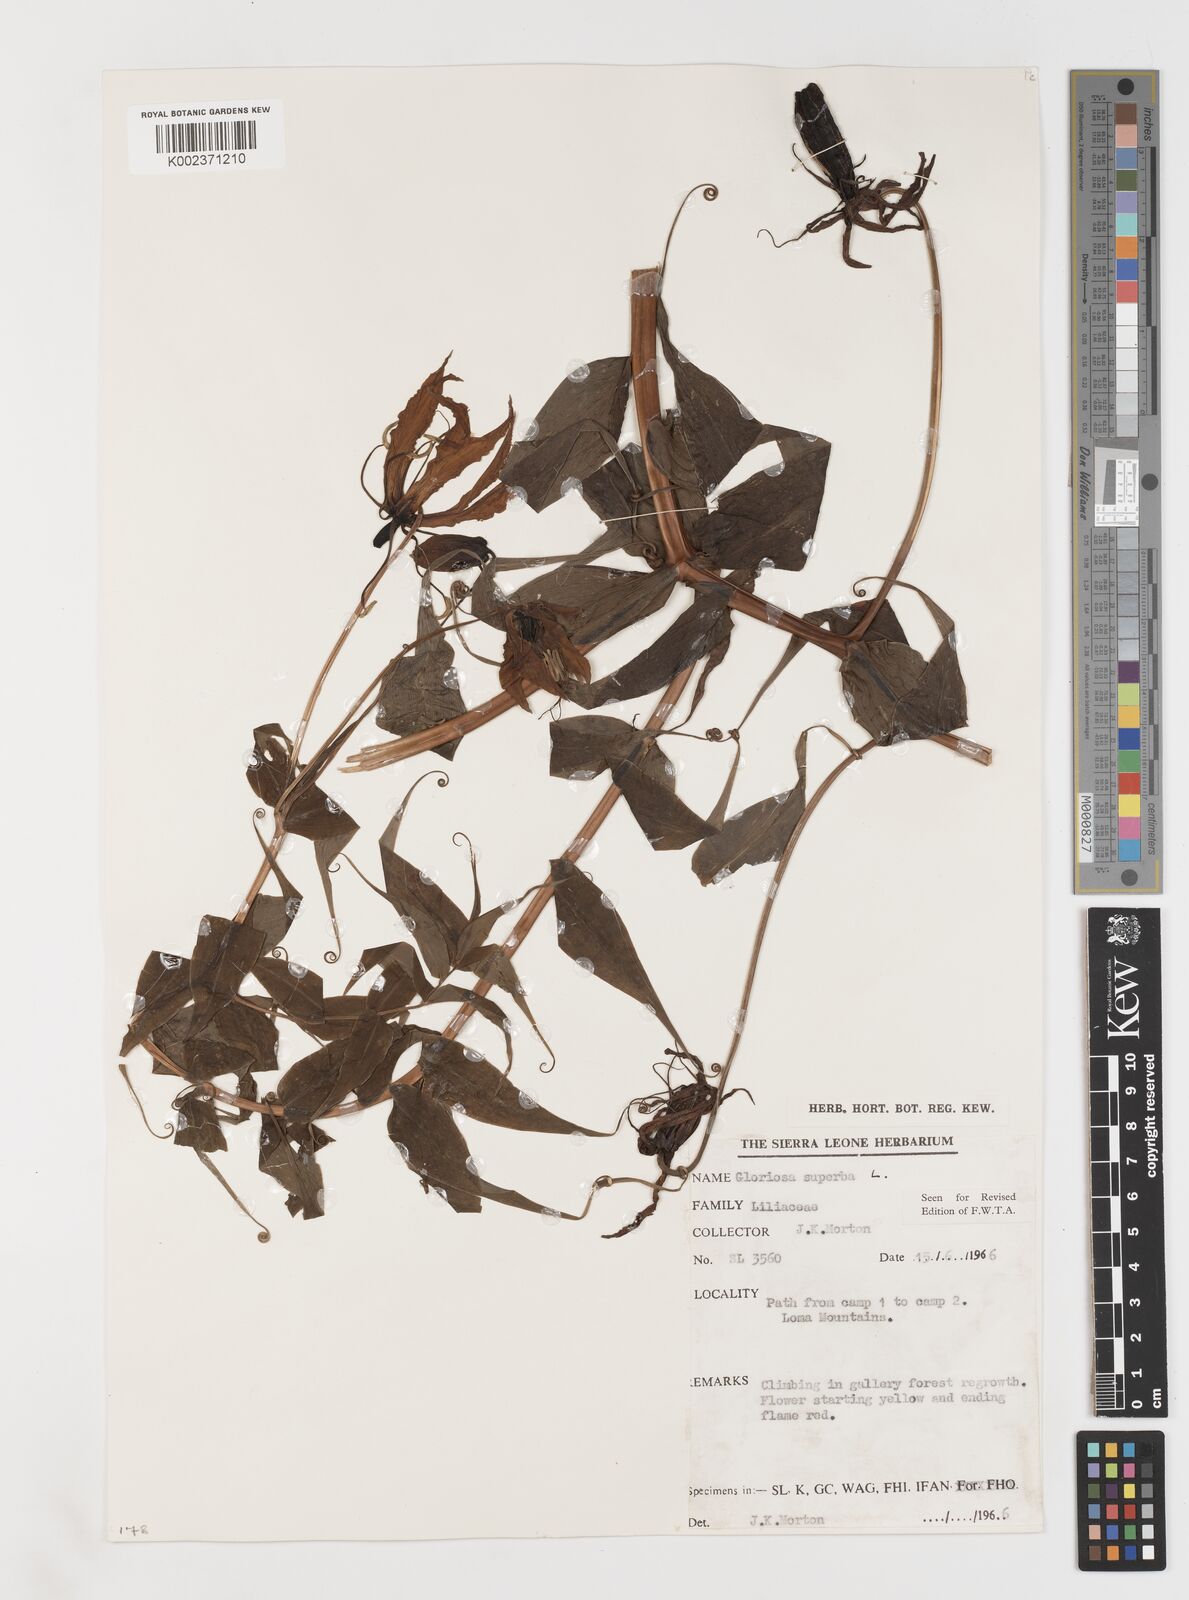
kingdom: Plantae
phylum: Tracheophyta
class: Liliopsida
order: Liliales
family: Colchicaceae
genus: Gloriosa
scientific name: Gloriosa superba
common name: Flame lily
